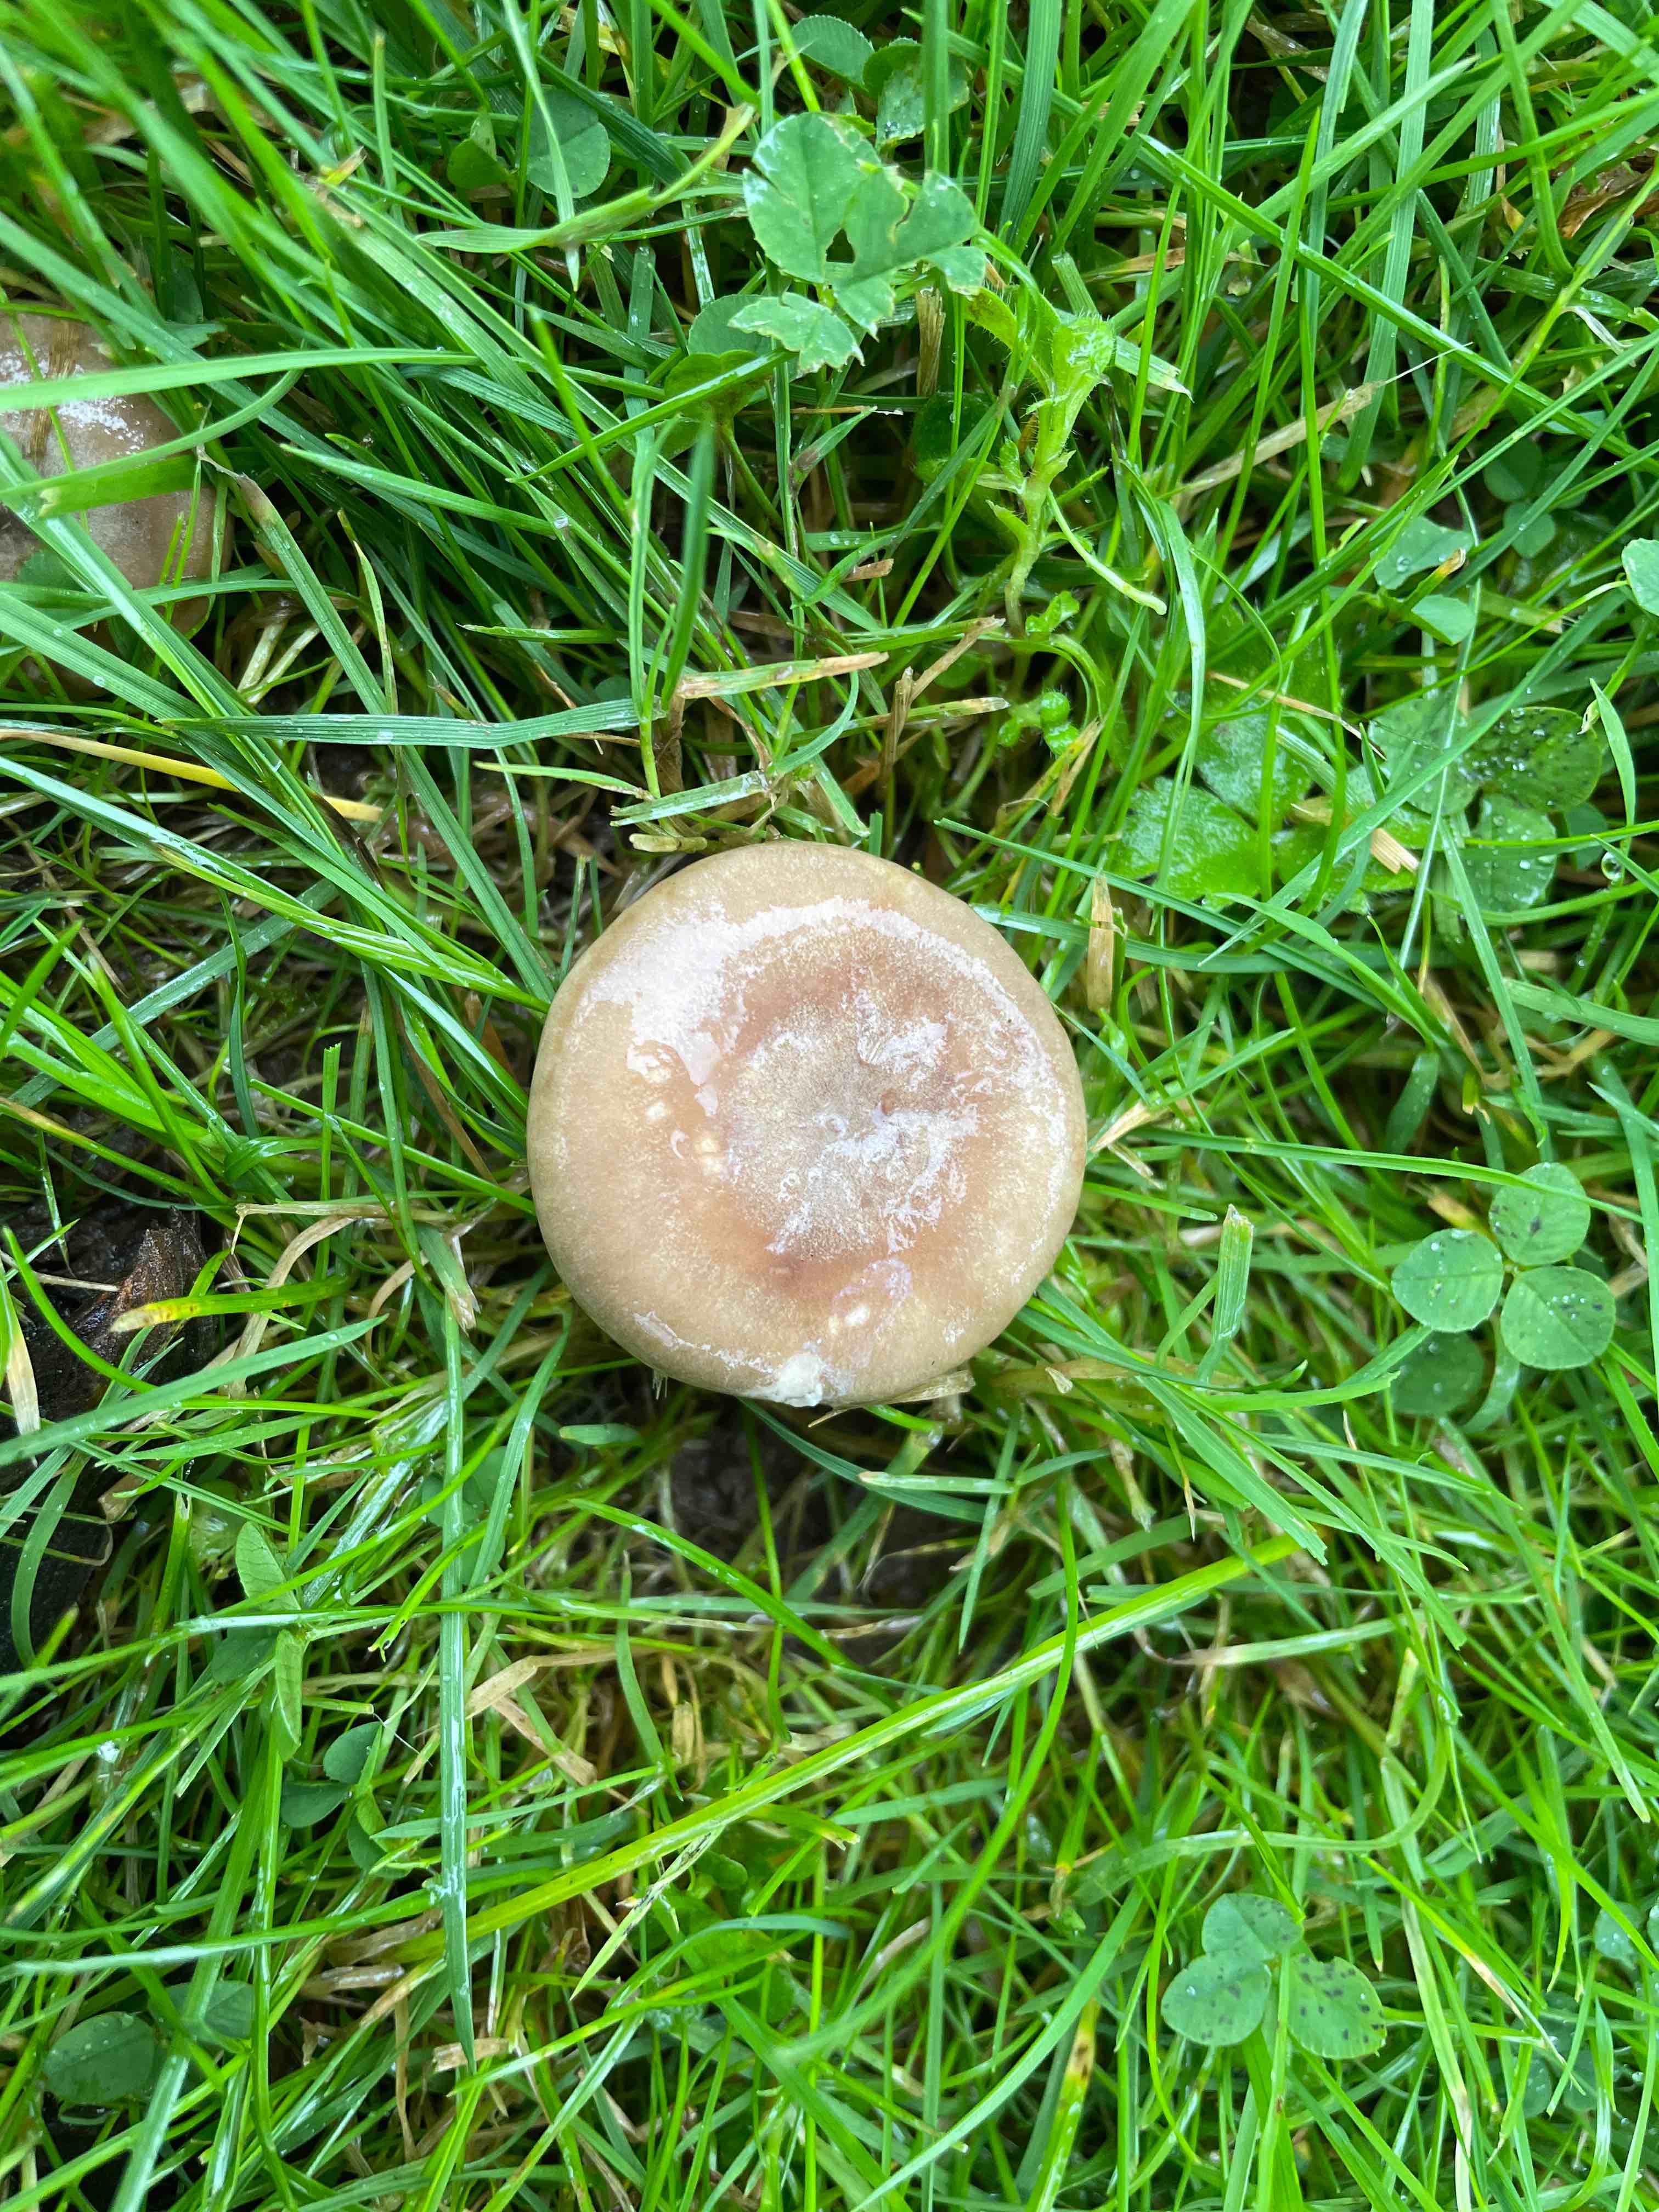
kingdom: Fungi
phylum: Basidiomycota
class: Agaricomycetes
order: Russulales
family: Russulaceae
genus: Lactarius
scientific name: Lactarius pyrogalus
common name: hassel-mælkehat
